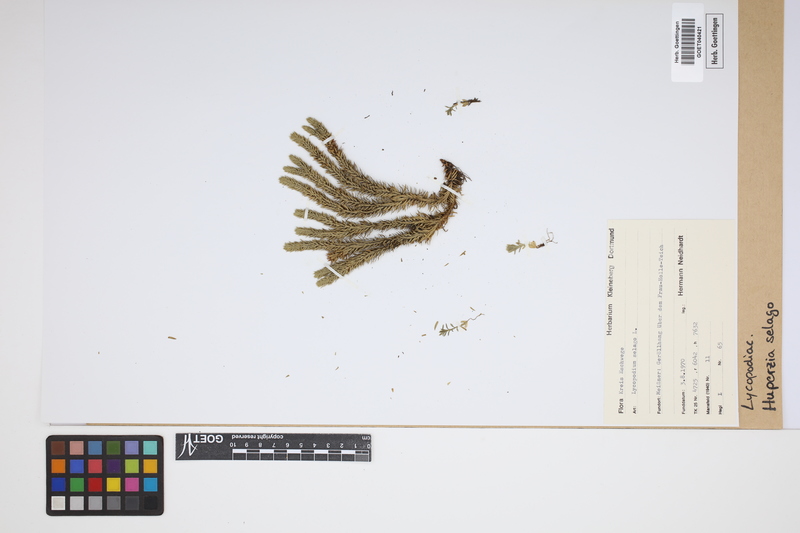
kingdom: Plantae
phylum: Tracheophyta
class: Lycopodiopsida
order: Lycopodiales
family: Lycopodiaceae
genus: Huperzia
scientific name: Huperzia selago
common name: Northern firmoss
